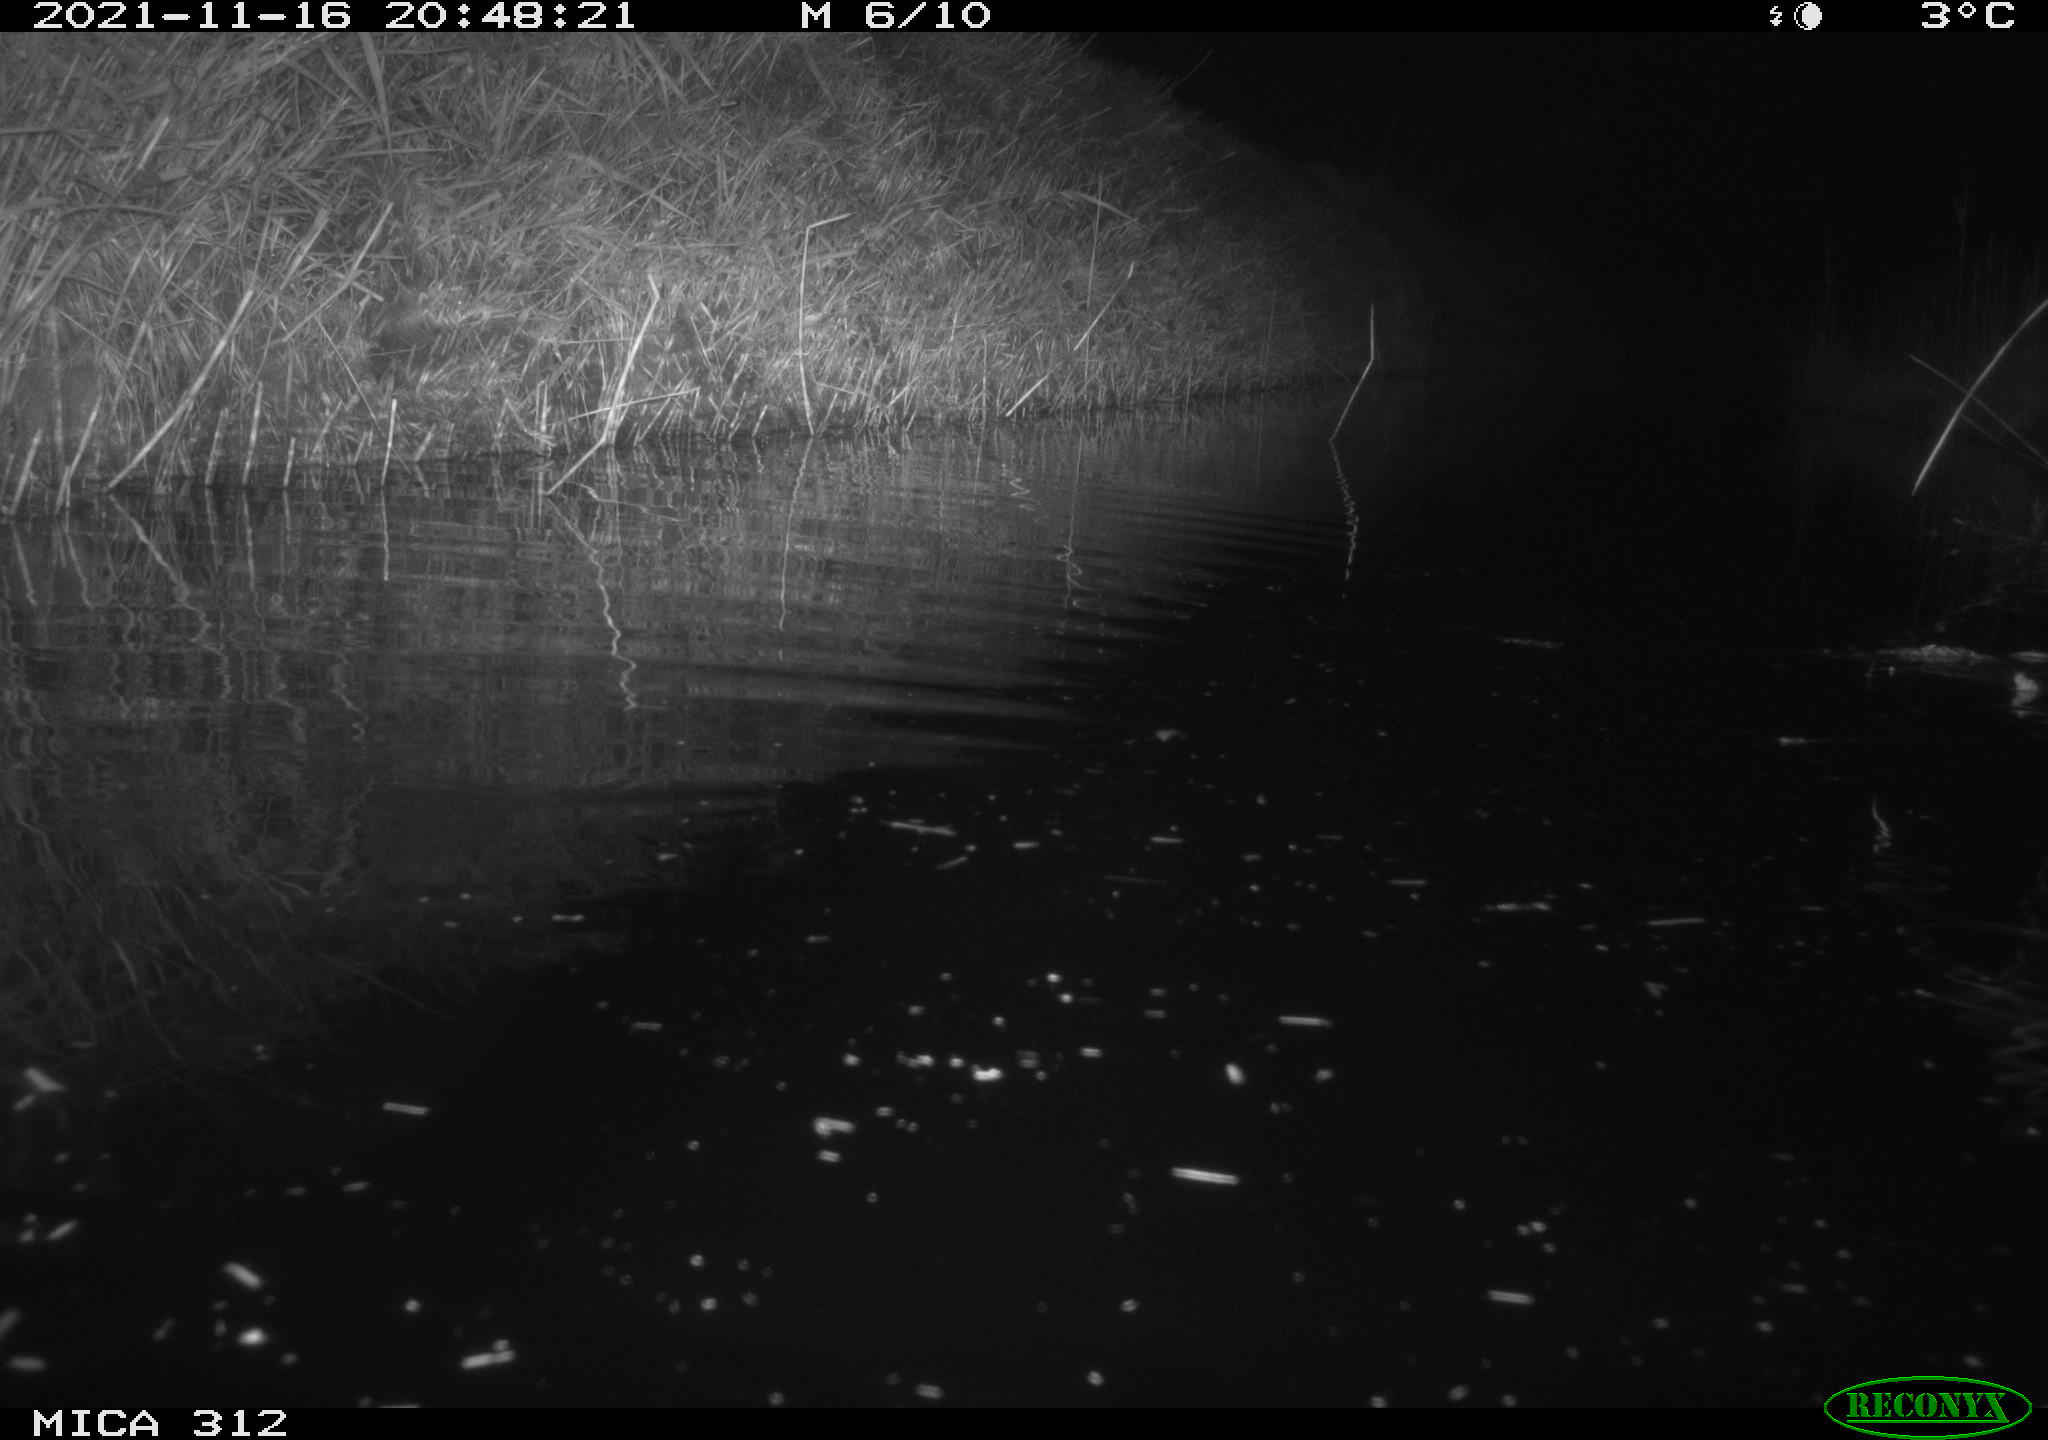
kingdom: Animalia
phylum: Chordata
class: Mammalia
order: Rodentia
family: Muridae
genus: Rattus
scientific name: Rattus norvegicus
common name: Brown rat
